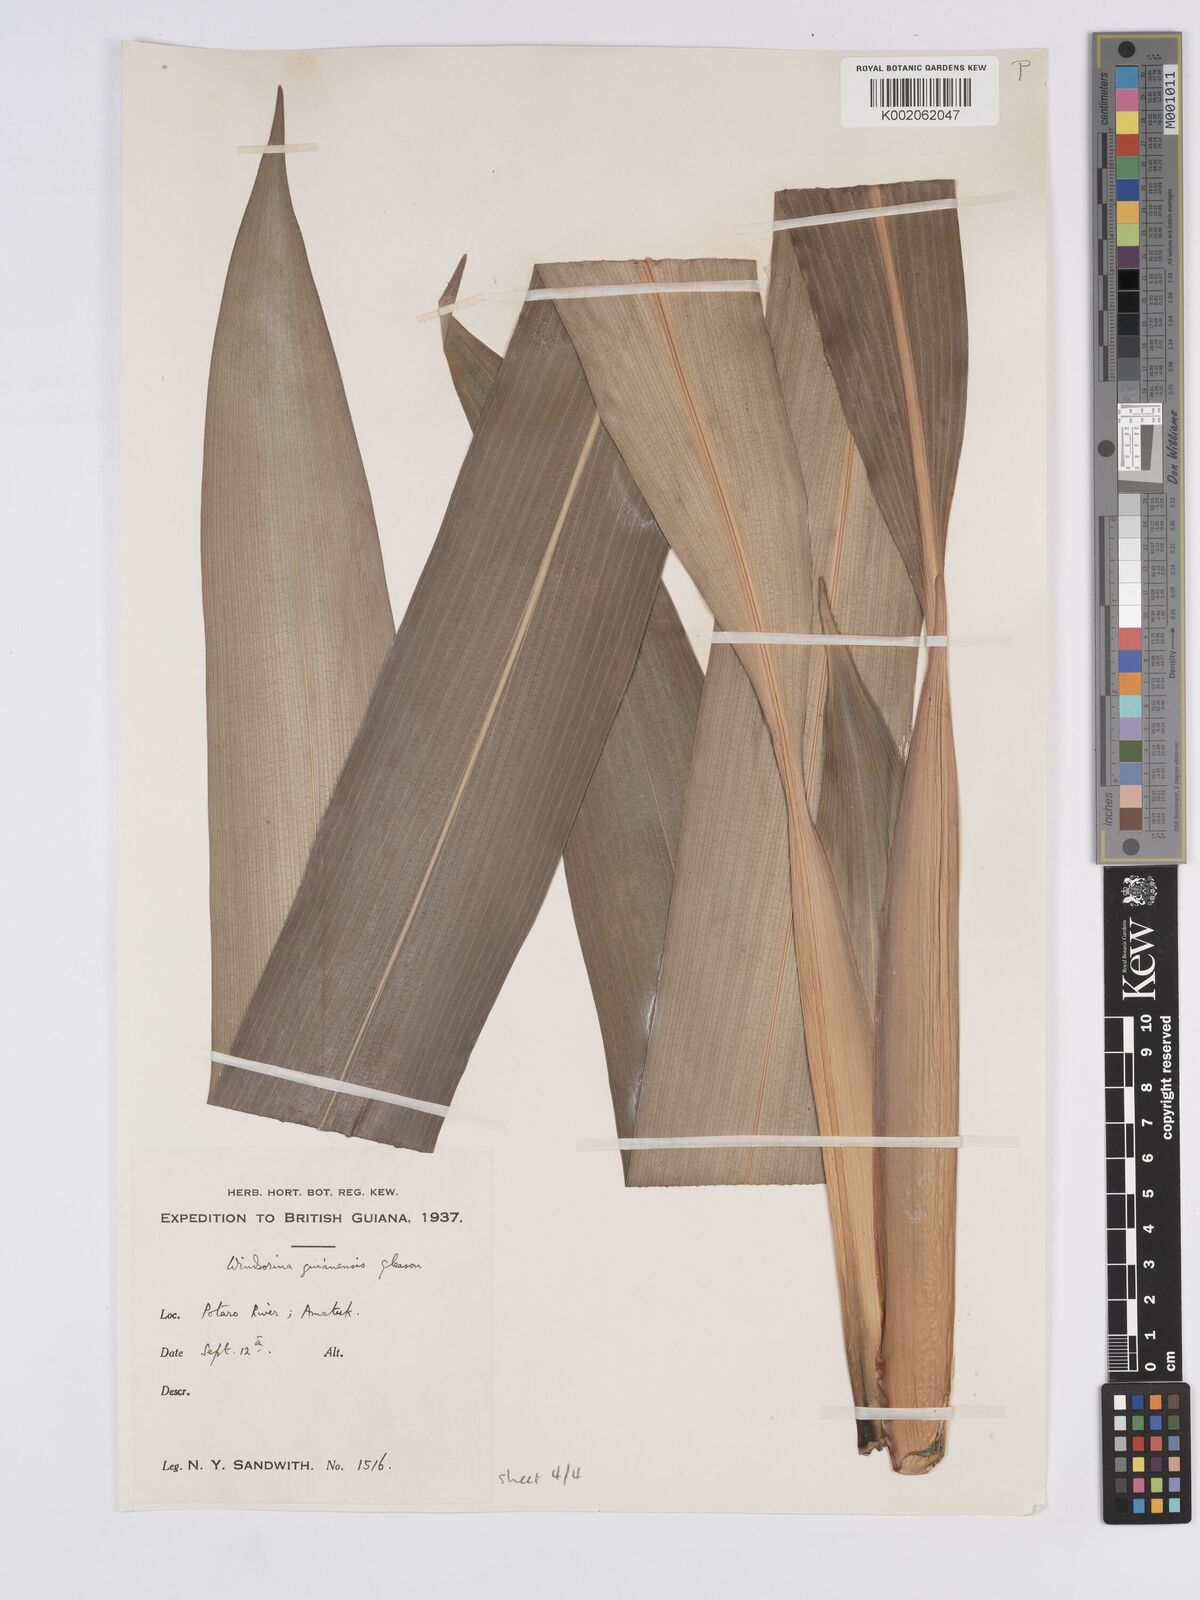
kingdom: Plantae
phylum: Tracheophyta
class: Liliopsida
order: Poales
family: Rapateaceae
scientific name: Rapateaceae
